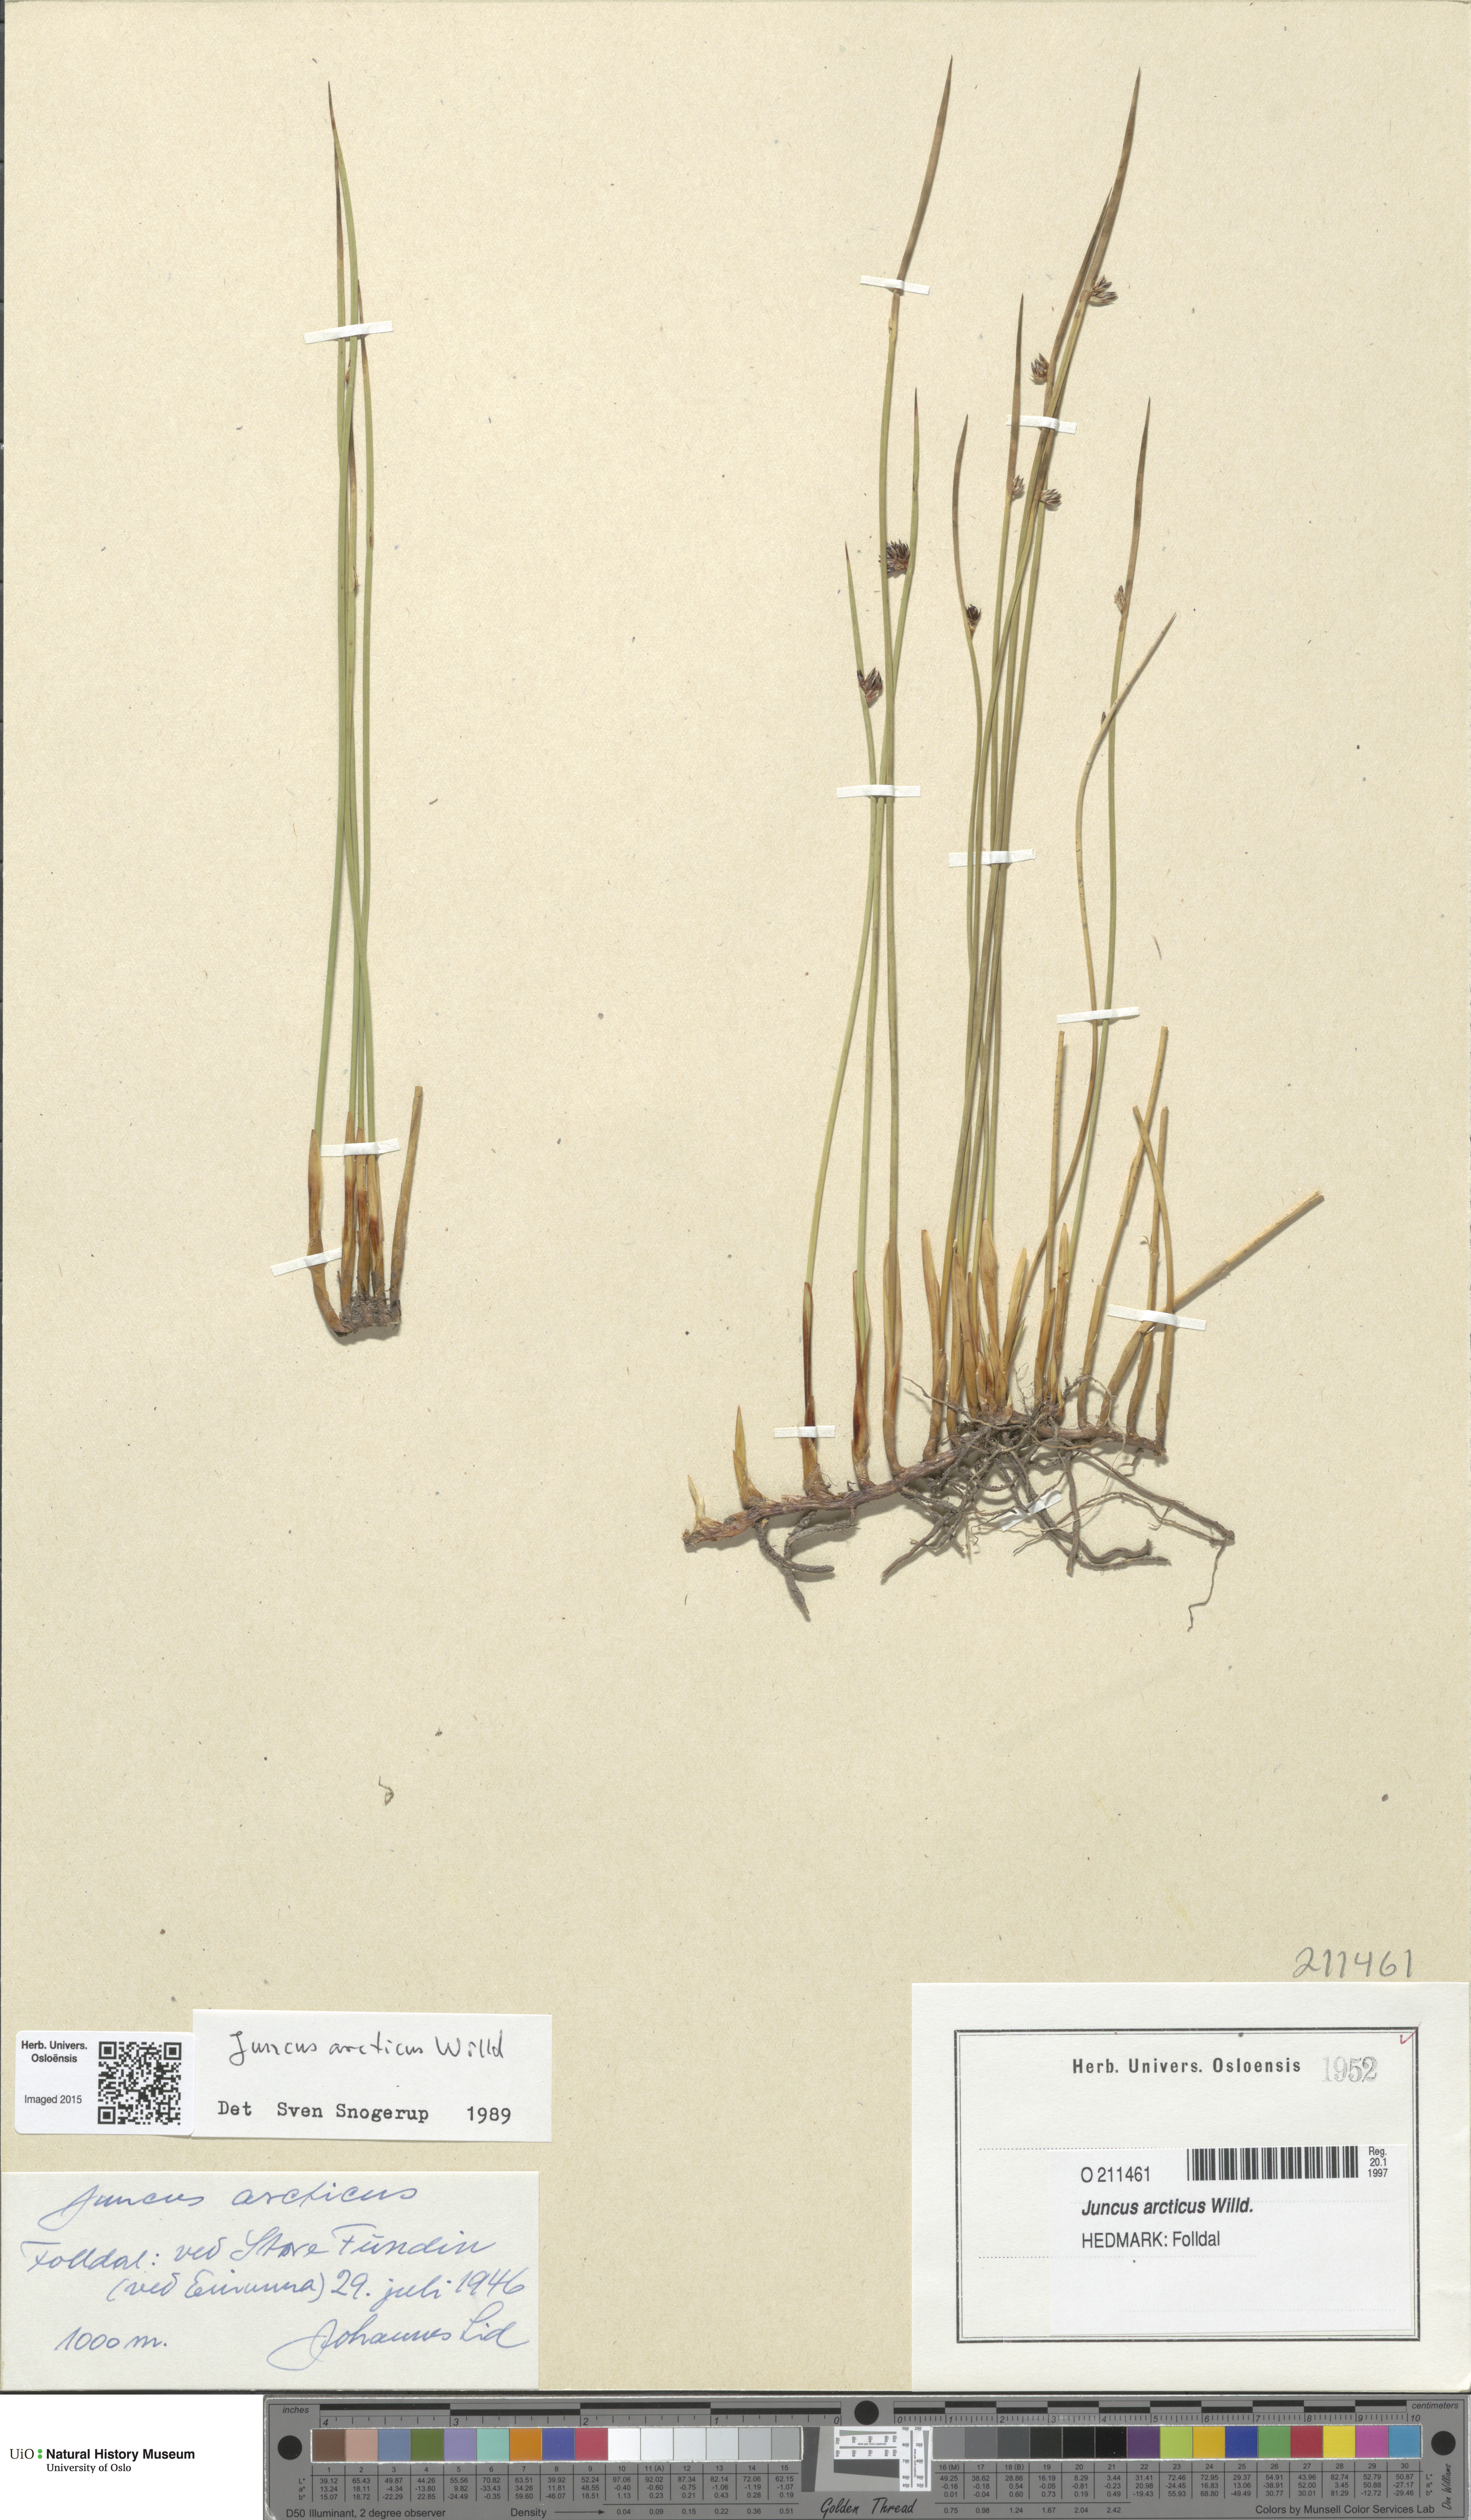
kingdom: Plantae
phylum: Tracheophyta
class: Liliopsida
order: Poales
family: Juncaceae
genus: Juncus
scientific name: Juncus arcticus
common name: Arctic rush
